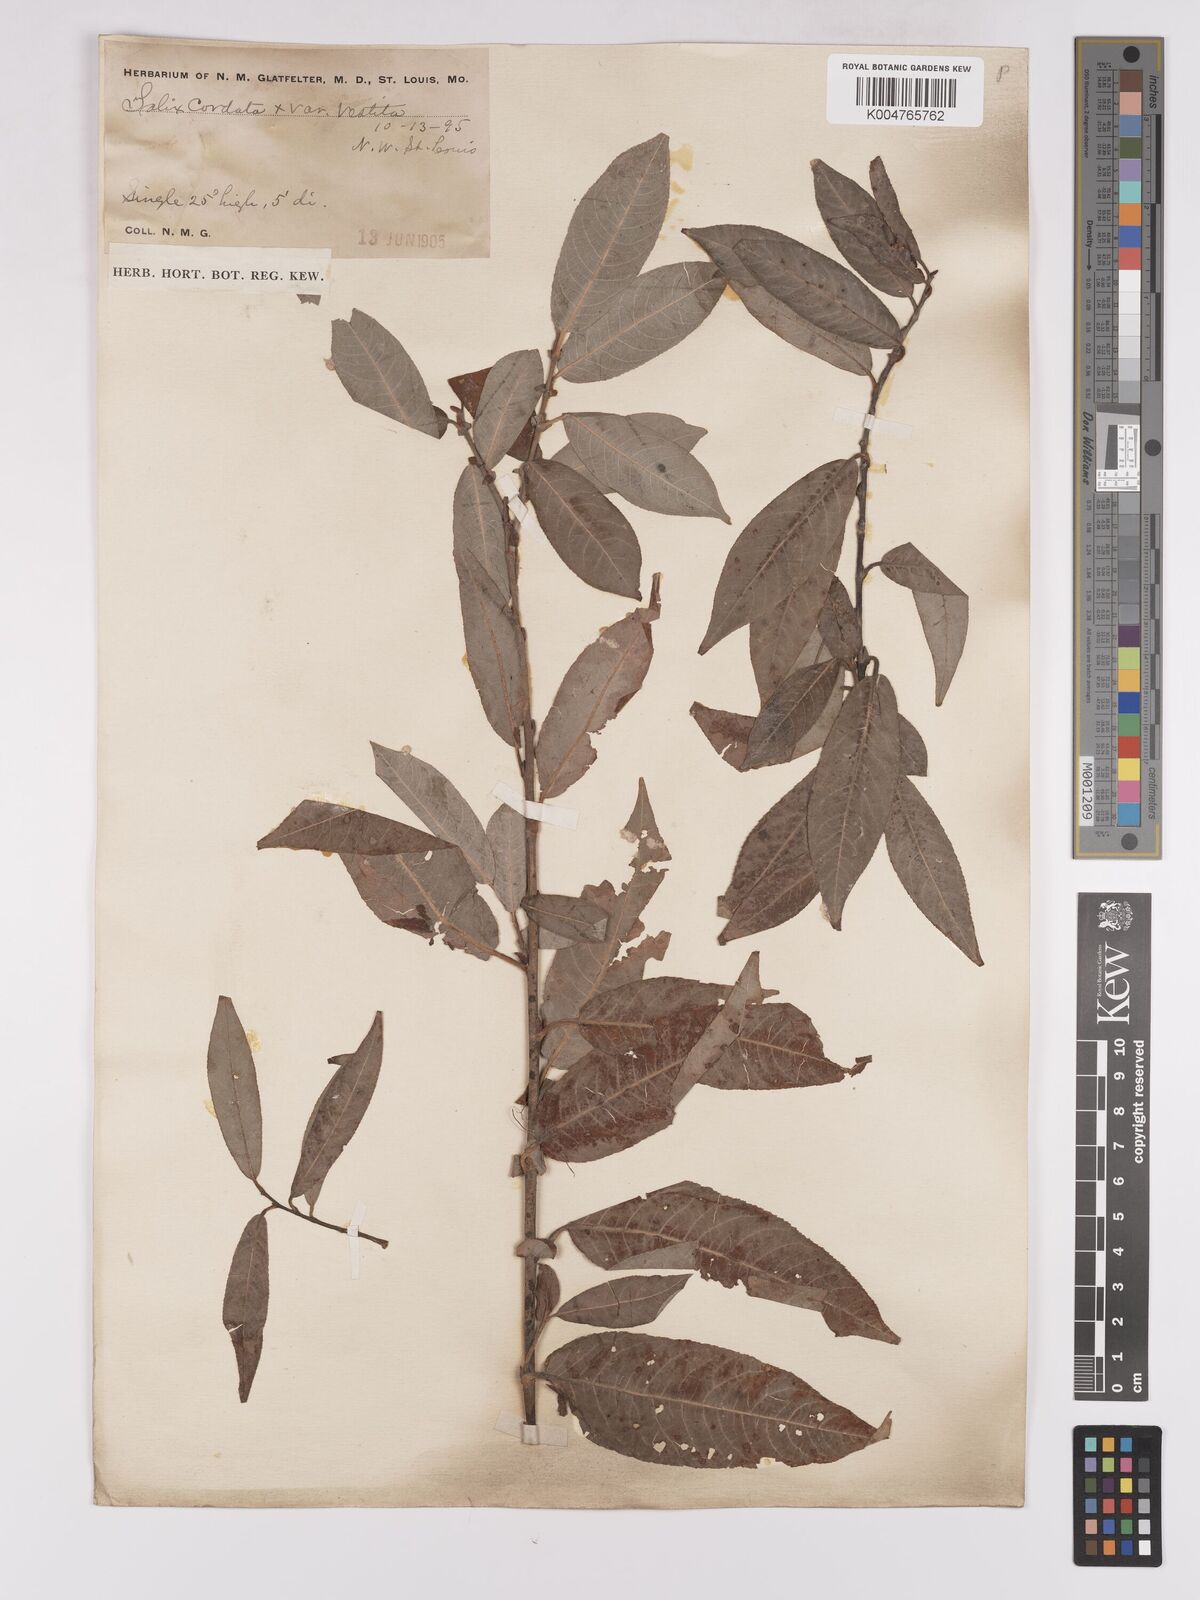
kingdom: Plantae
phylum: Tracheophyta
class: Magnoliopsida
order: Malpighiales
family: Salicaceae
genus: Salix
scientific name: Salix cordata
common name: Heart-leaf willow
